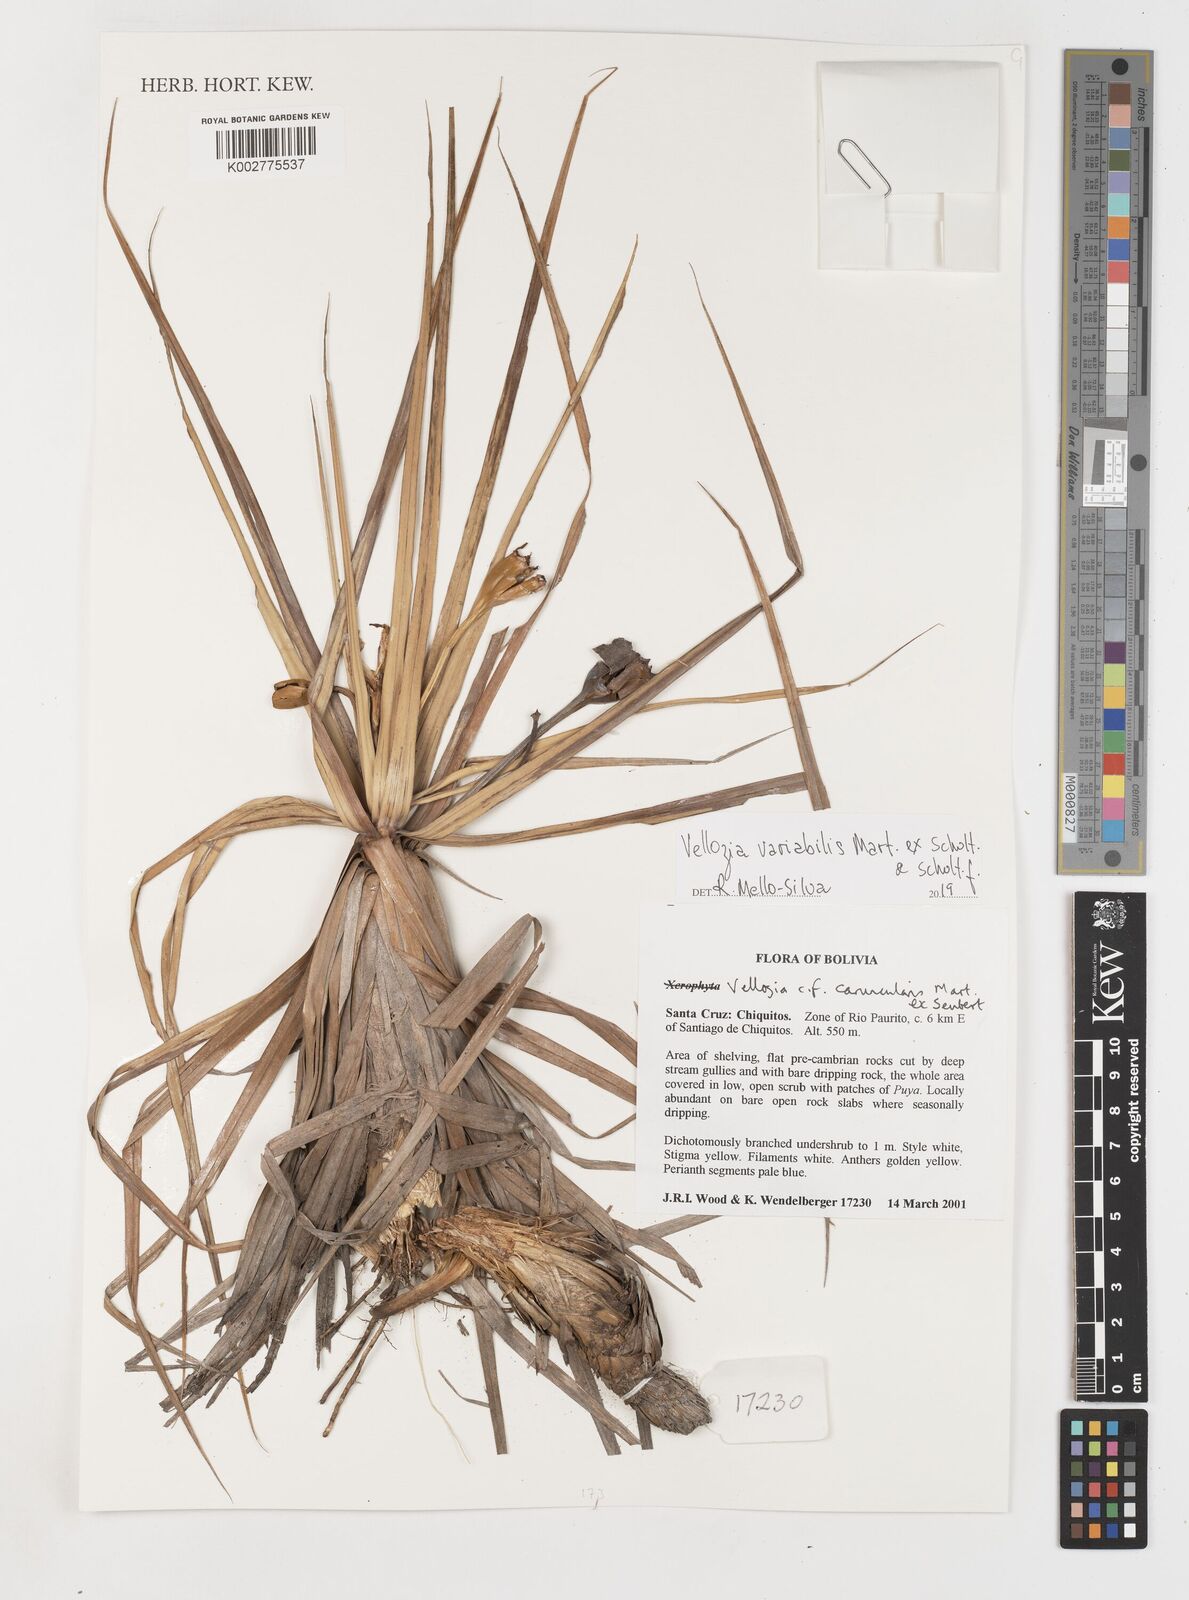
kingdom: Plantae
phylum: Tracheophyta
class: Liliopsida
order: Pandanales
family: Velloziaceae
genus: Vellozia
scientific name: Vellozia alutacea
